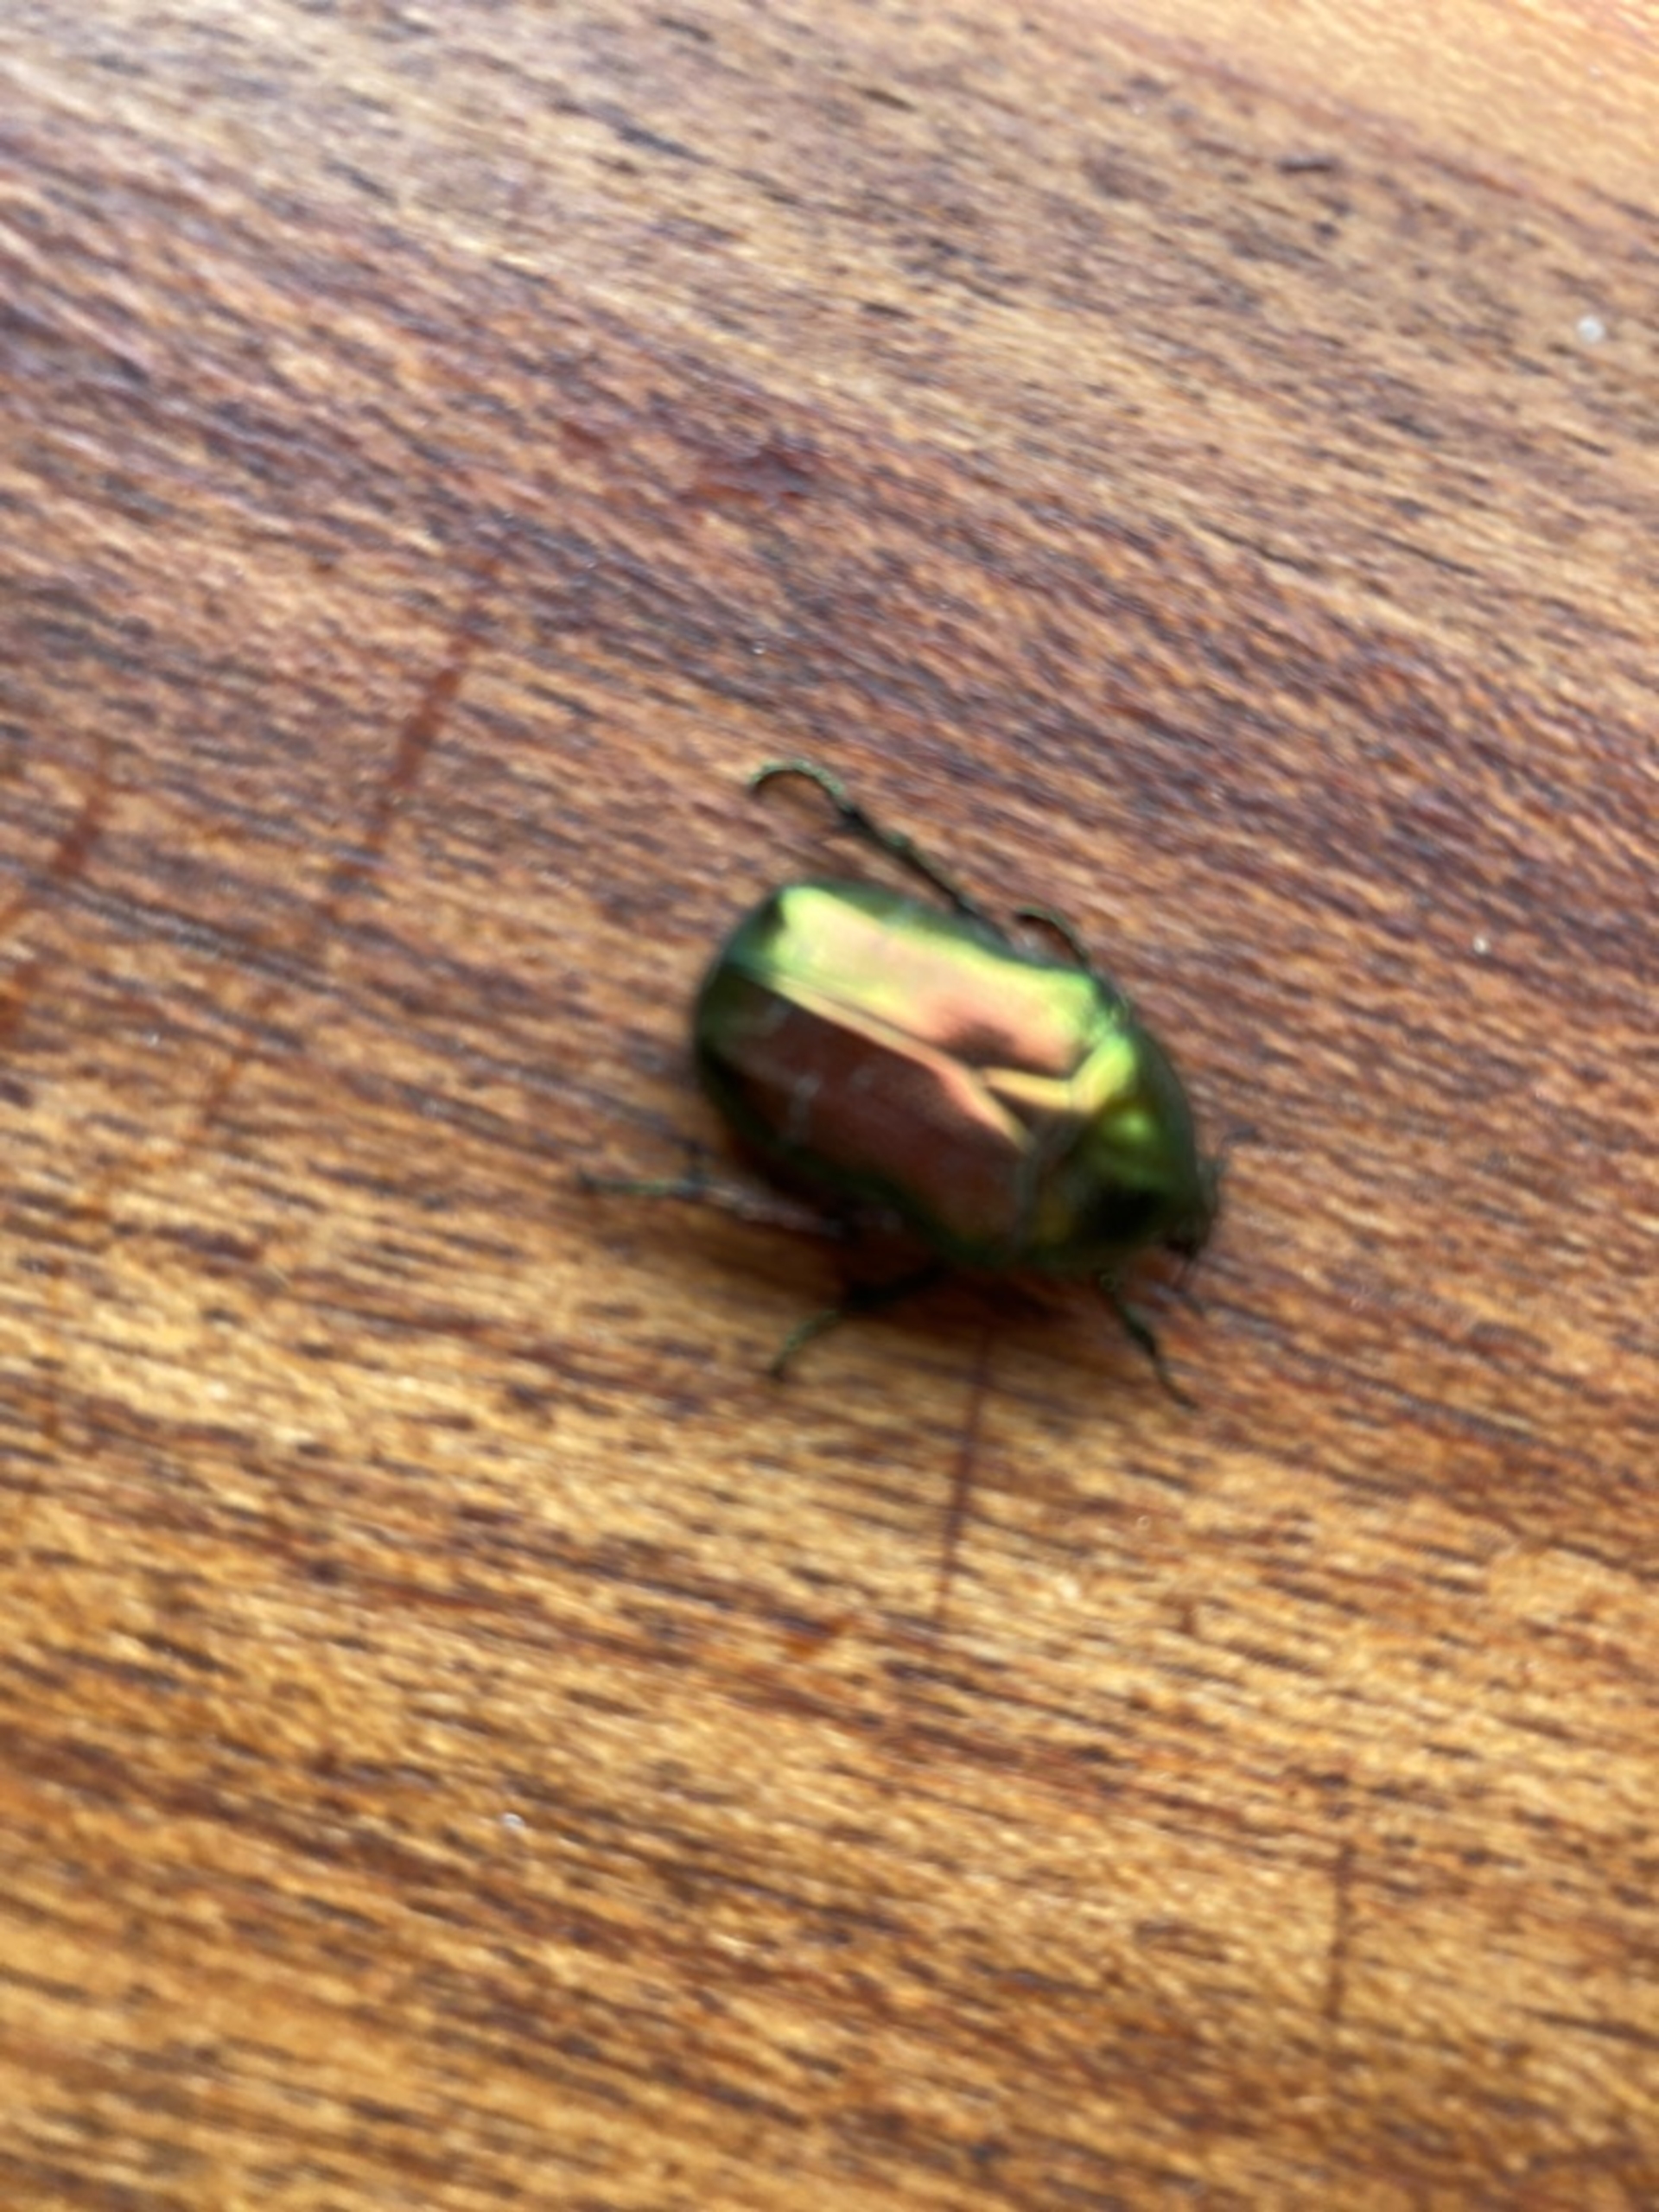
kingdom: Animalia
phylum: Arthropoda
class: Insecta
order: Coleoptera
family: Scarabaeidae
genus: Cetonia
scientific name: Cetonia aurata
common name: Grøn guldbasse
